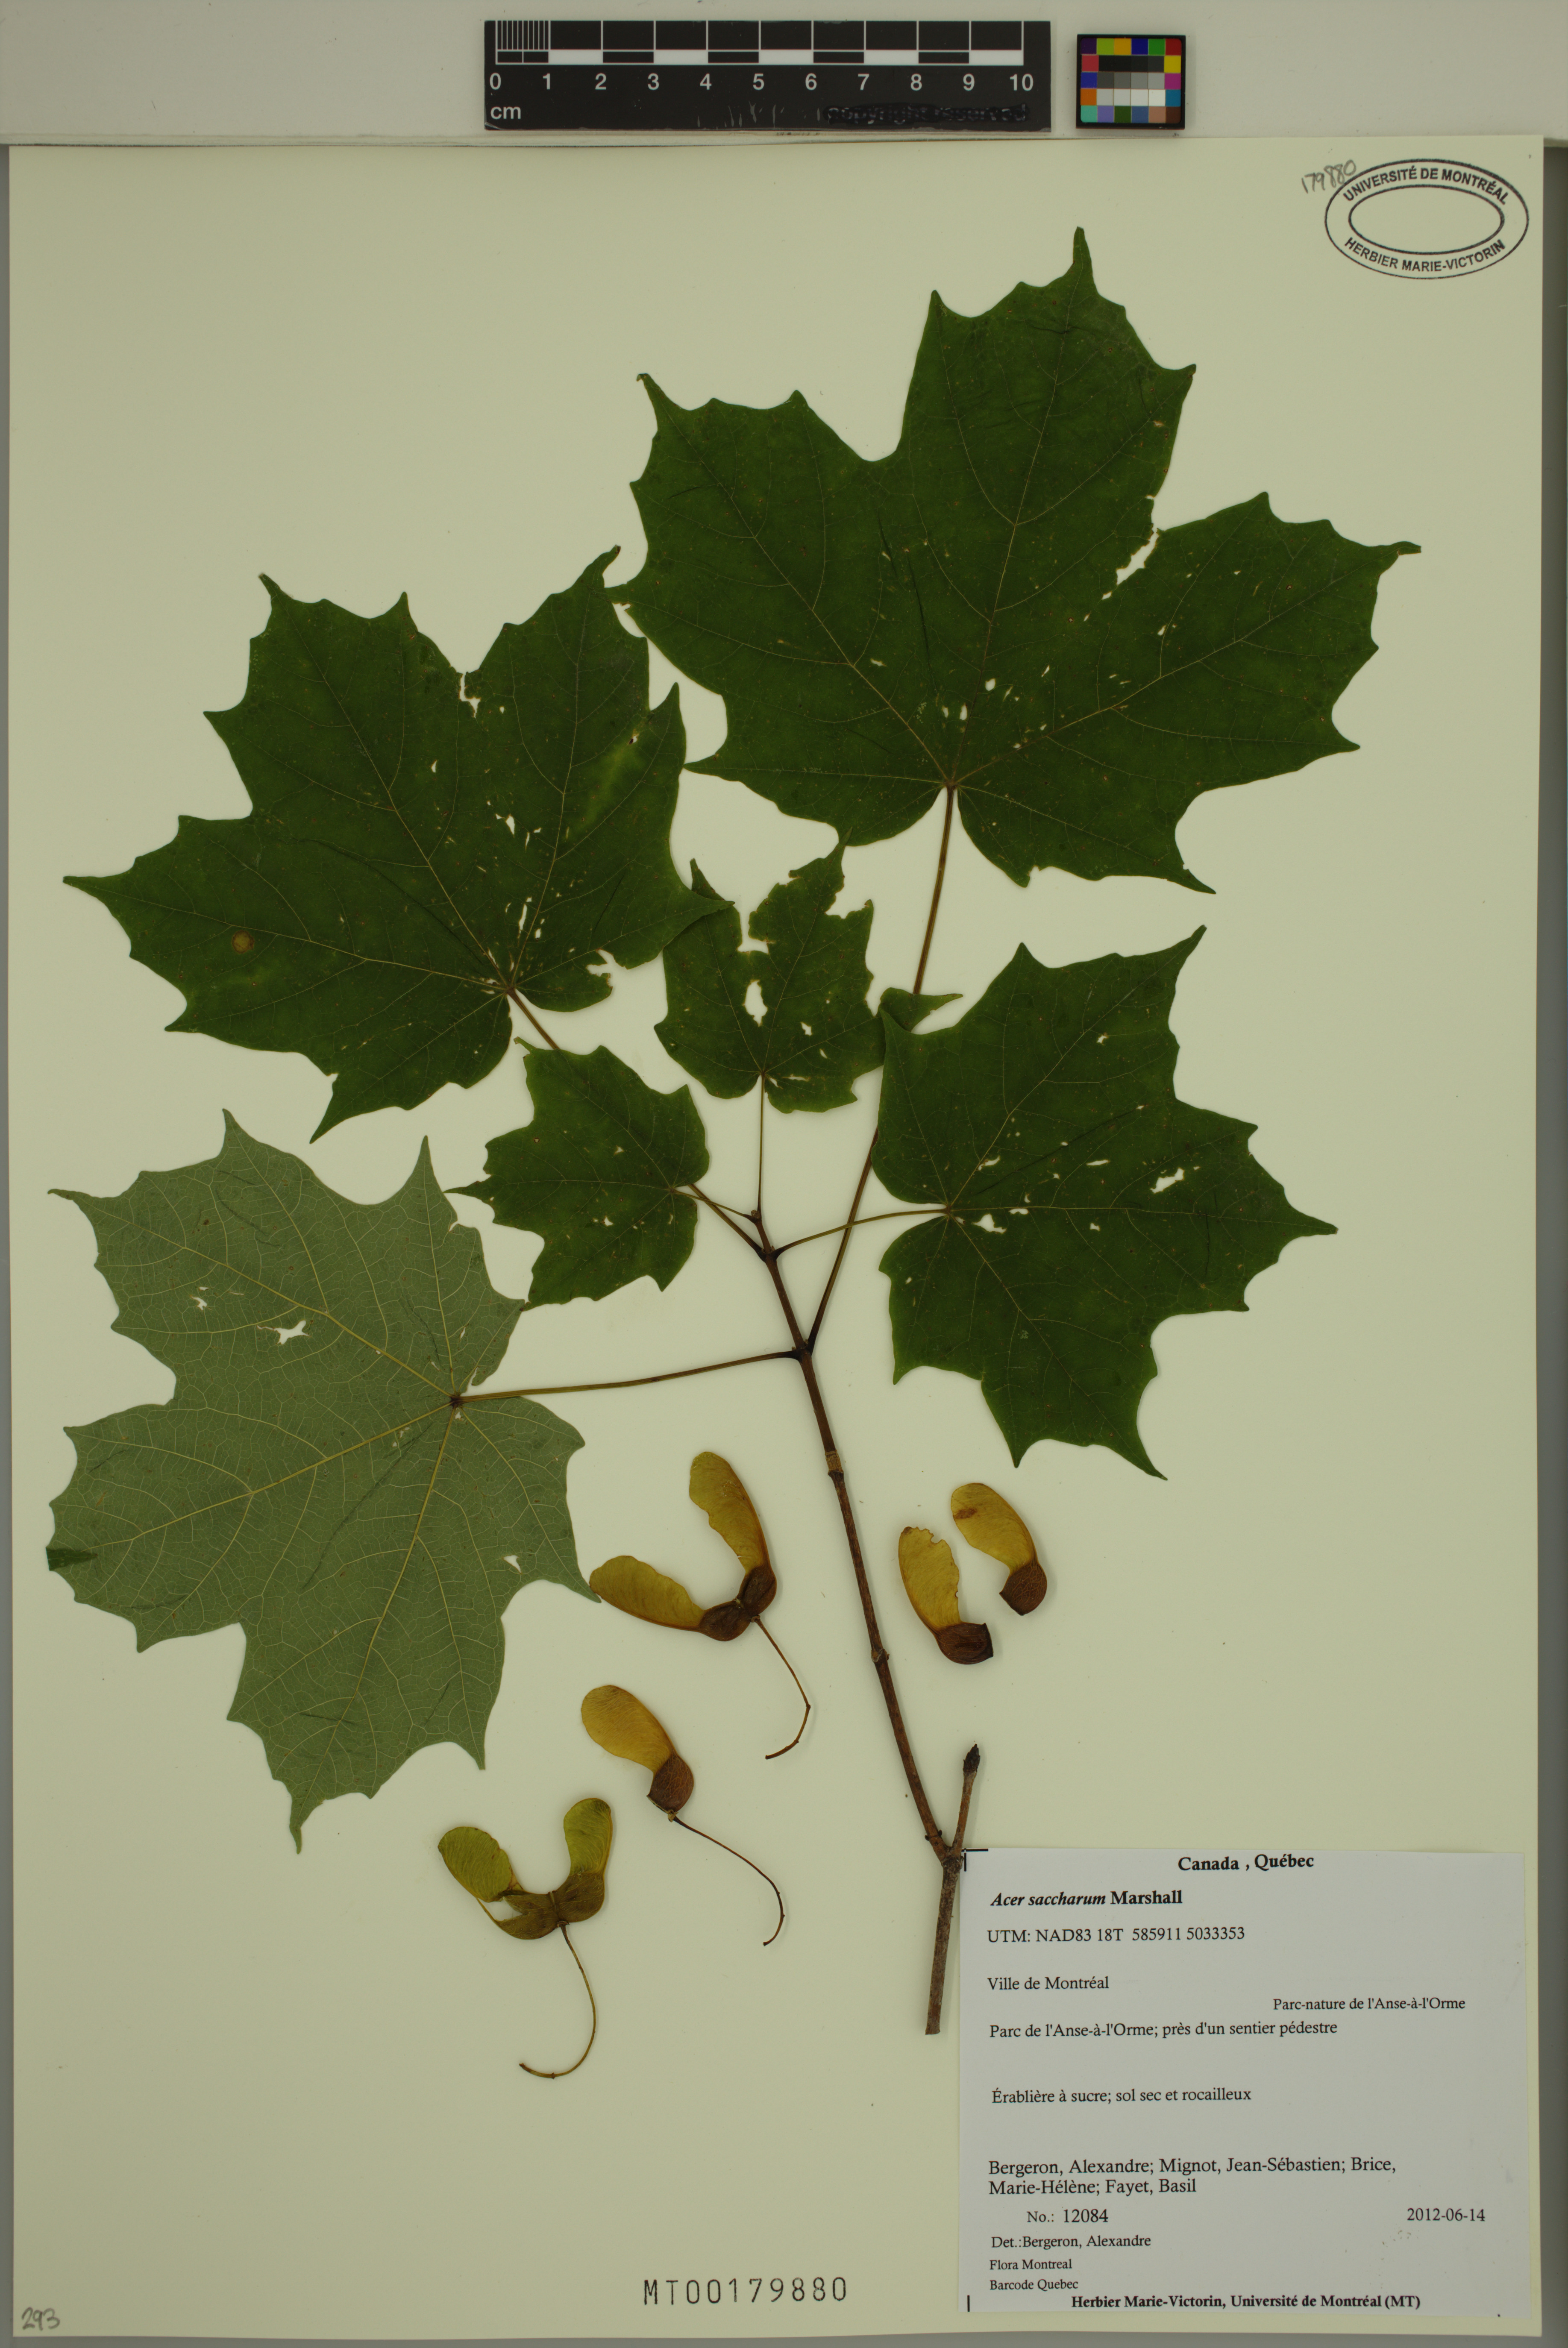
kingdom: Plantae
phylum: Tracheophyta
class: Magnoliopsida
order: Sapindales
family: Sapindaceae
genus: Acer
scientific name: Acer saccharum
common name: Sugar maple
